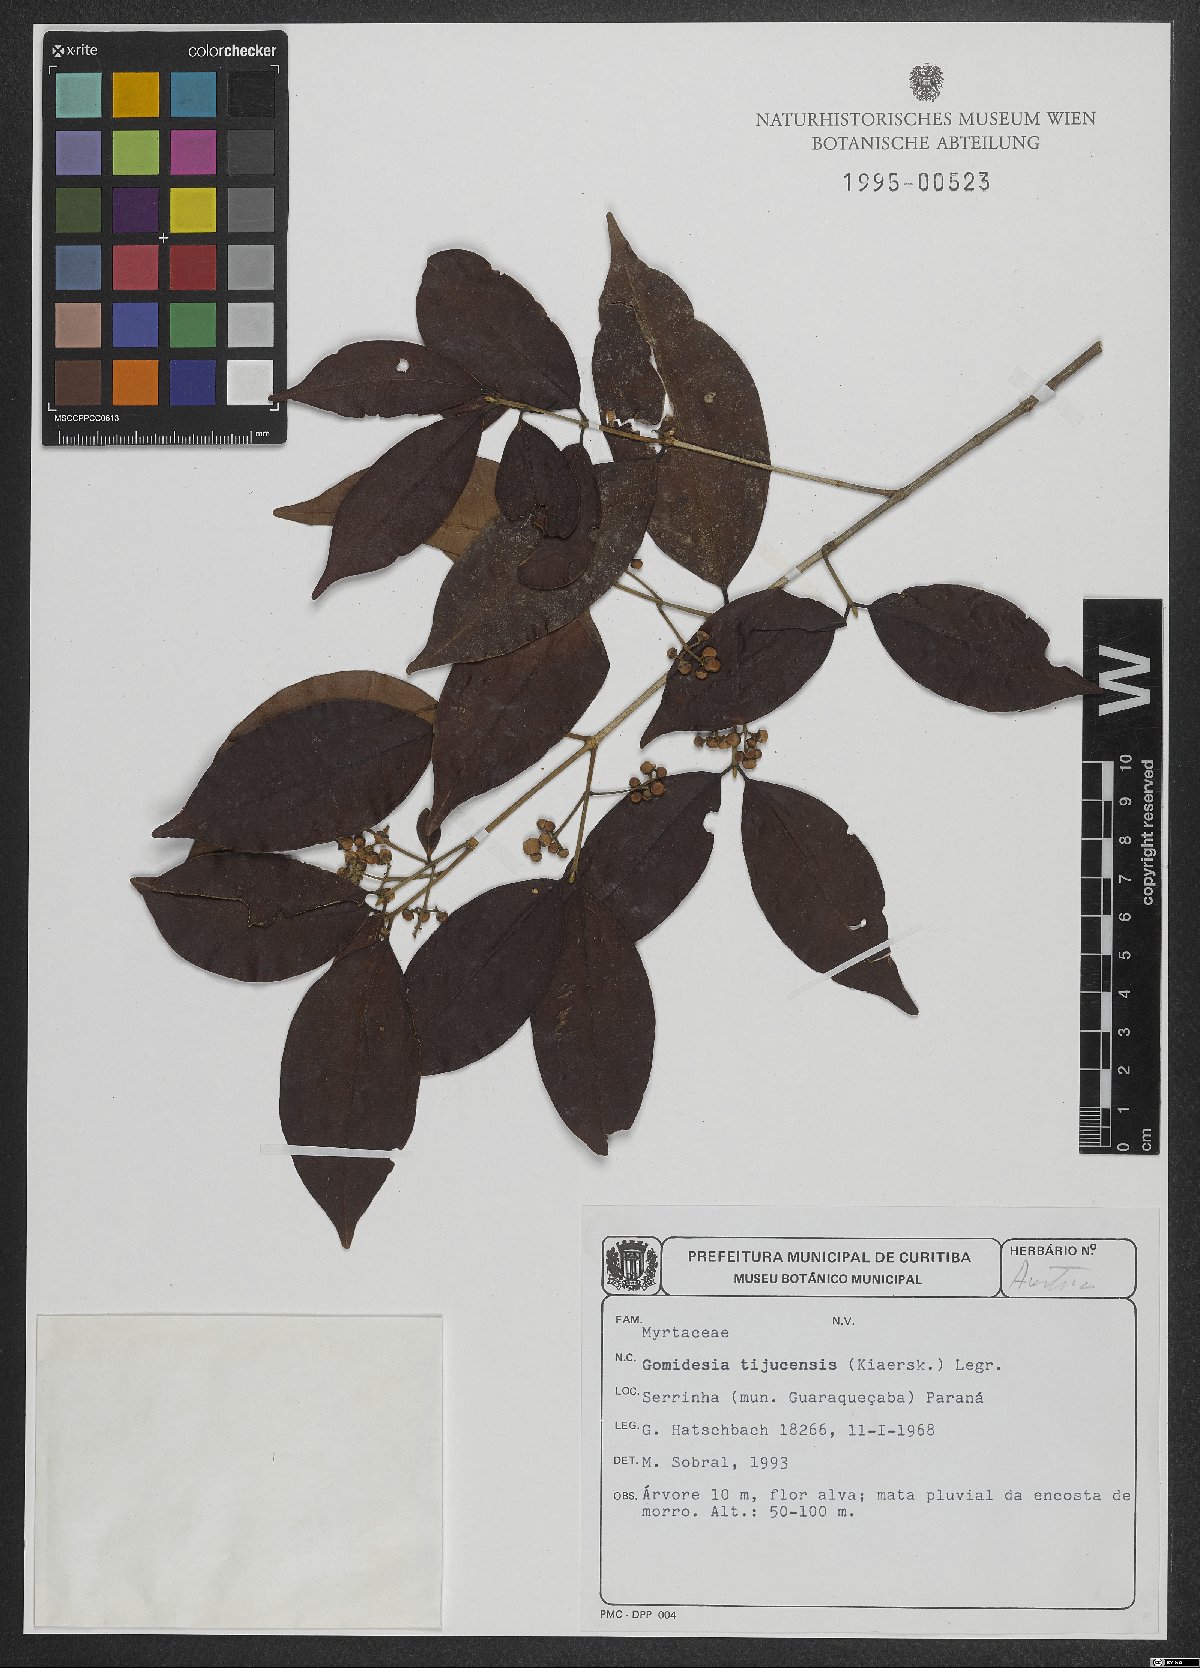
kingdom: Plantae
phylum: Tracheophyta
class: Magnoliopsida
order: Myrtales
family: Myrtaceae
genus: Myrcia
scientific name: Myrcia tijucensis
